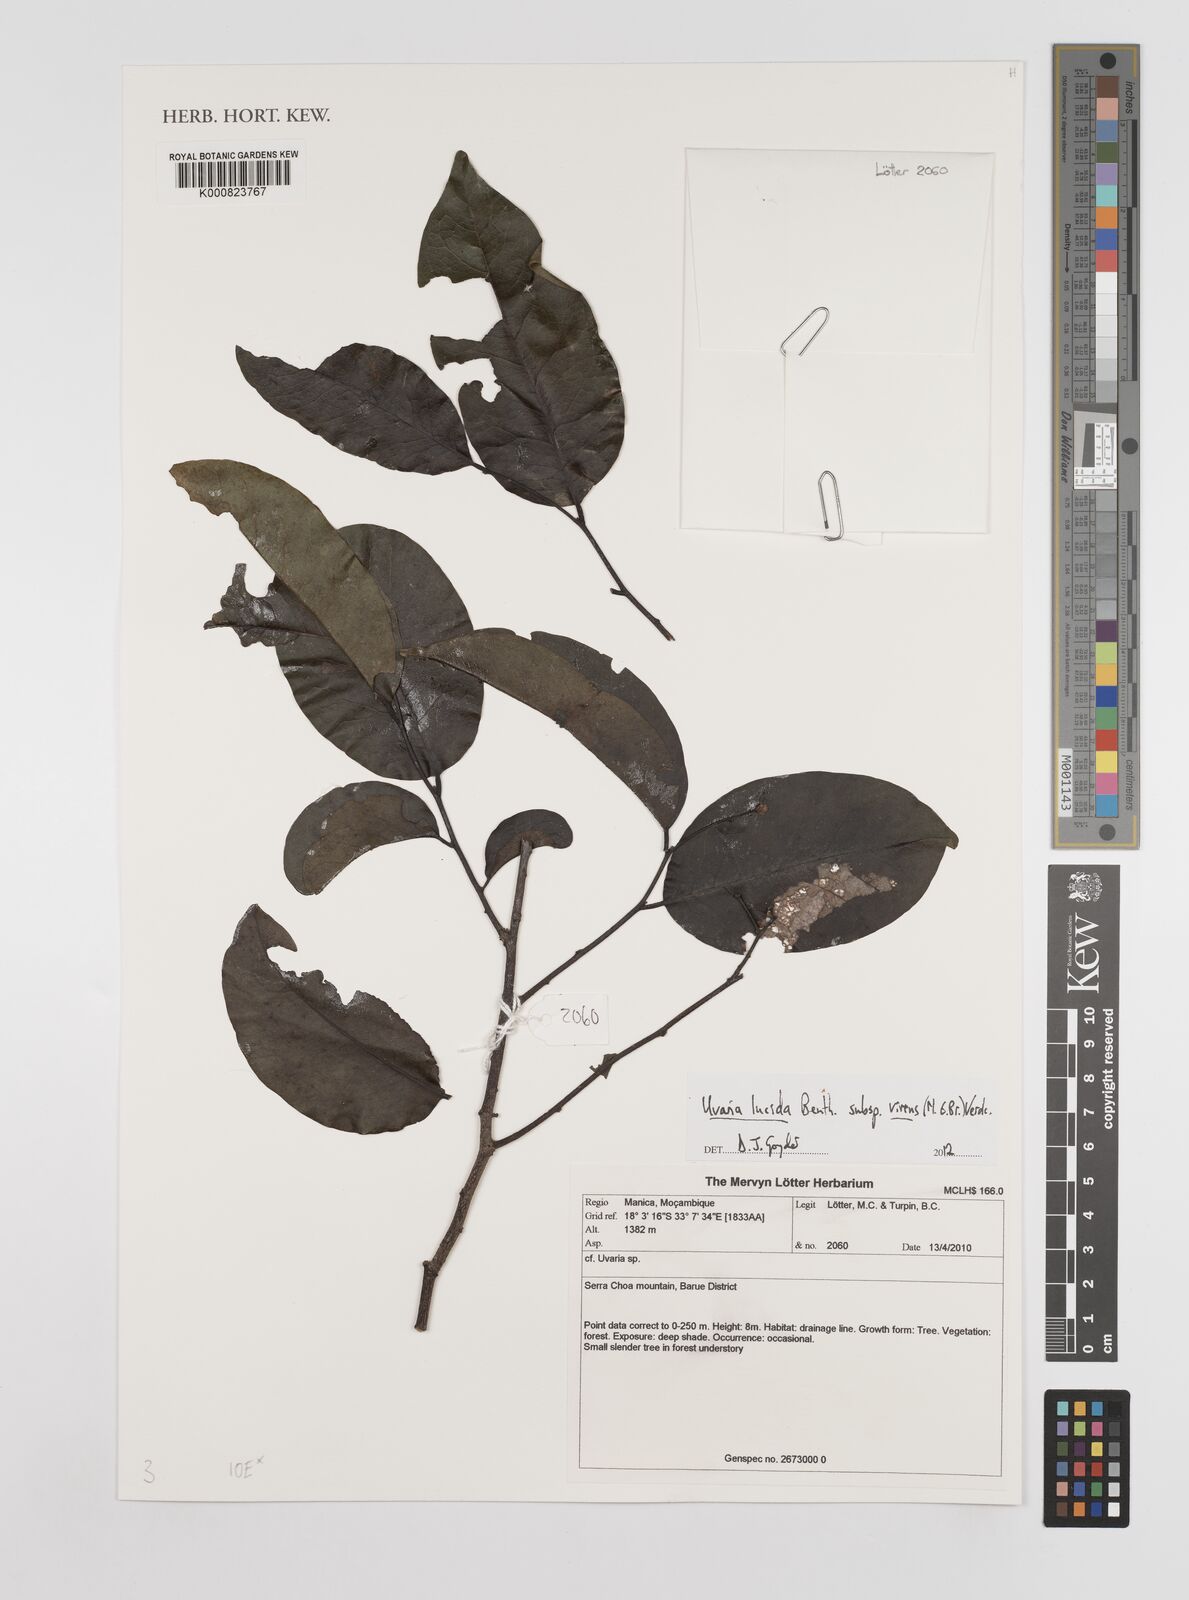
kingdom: Plantae
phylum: Tracheophyta
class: Magnoliopsida
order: Magnoliales
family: Annonaceae
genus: Uvaria
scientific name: Uvaria lucida
